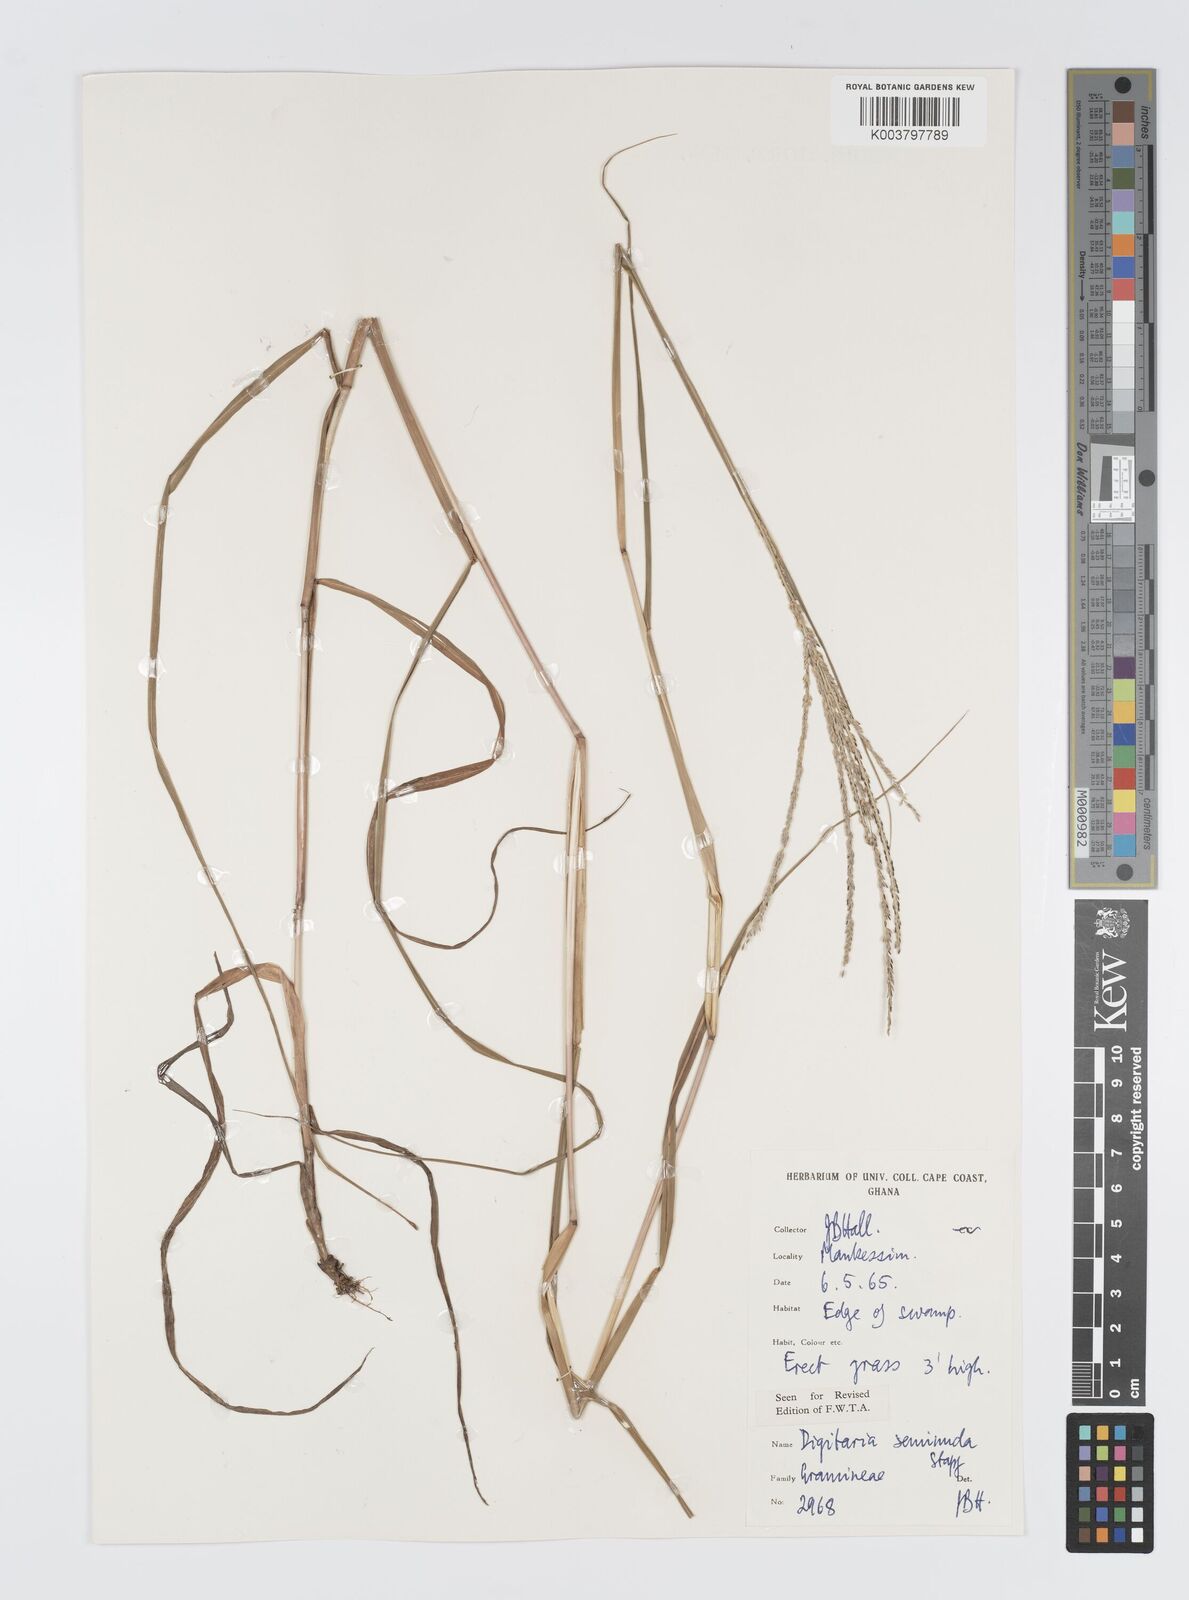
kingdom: Plantae
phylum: Tracheophyta
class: Liliopsida
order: Poales
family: Poaceae
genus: Digitaria
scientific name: Digitaria atrofusca
